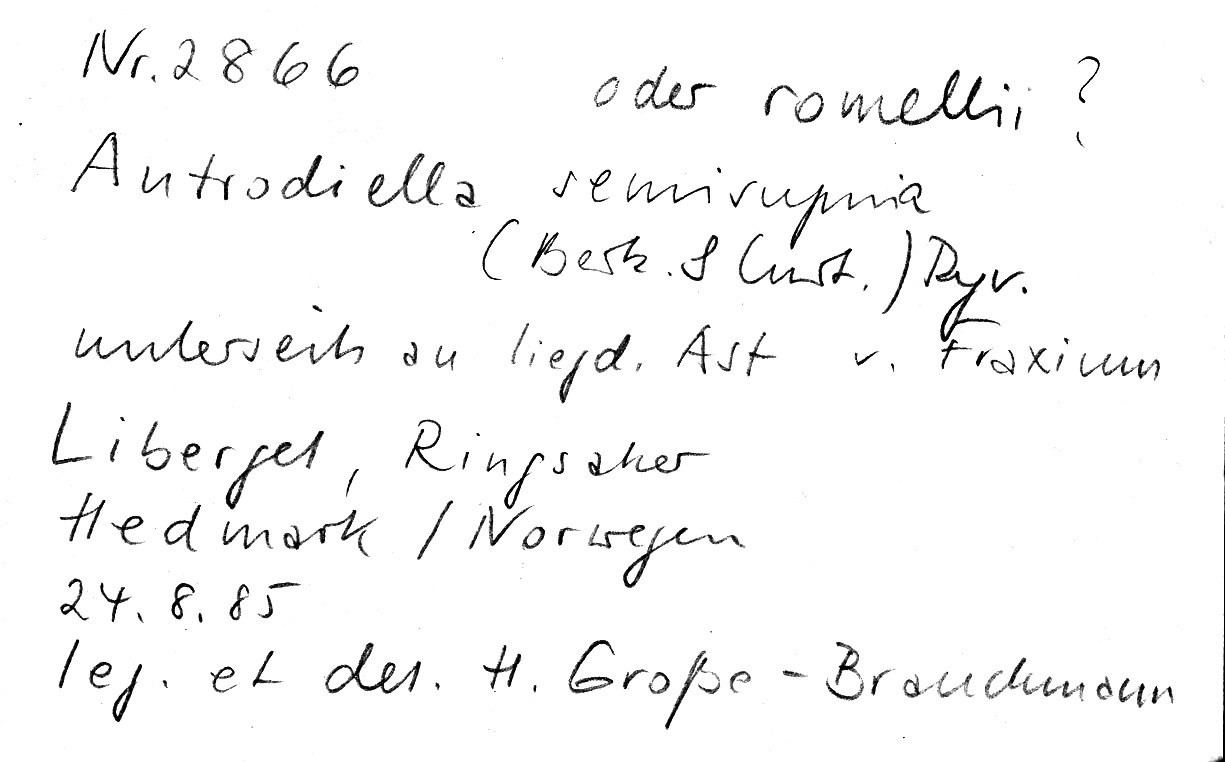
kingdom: Fungi
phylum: Basidiomycota
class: Agaricomycetes
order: Polyporales
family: Steccherinaceae
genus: Antrodiella
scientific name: Antrodiella semisupina
